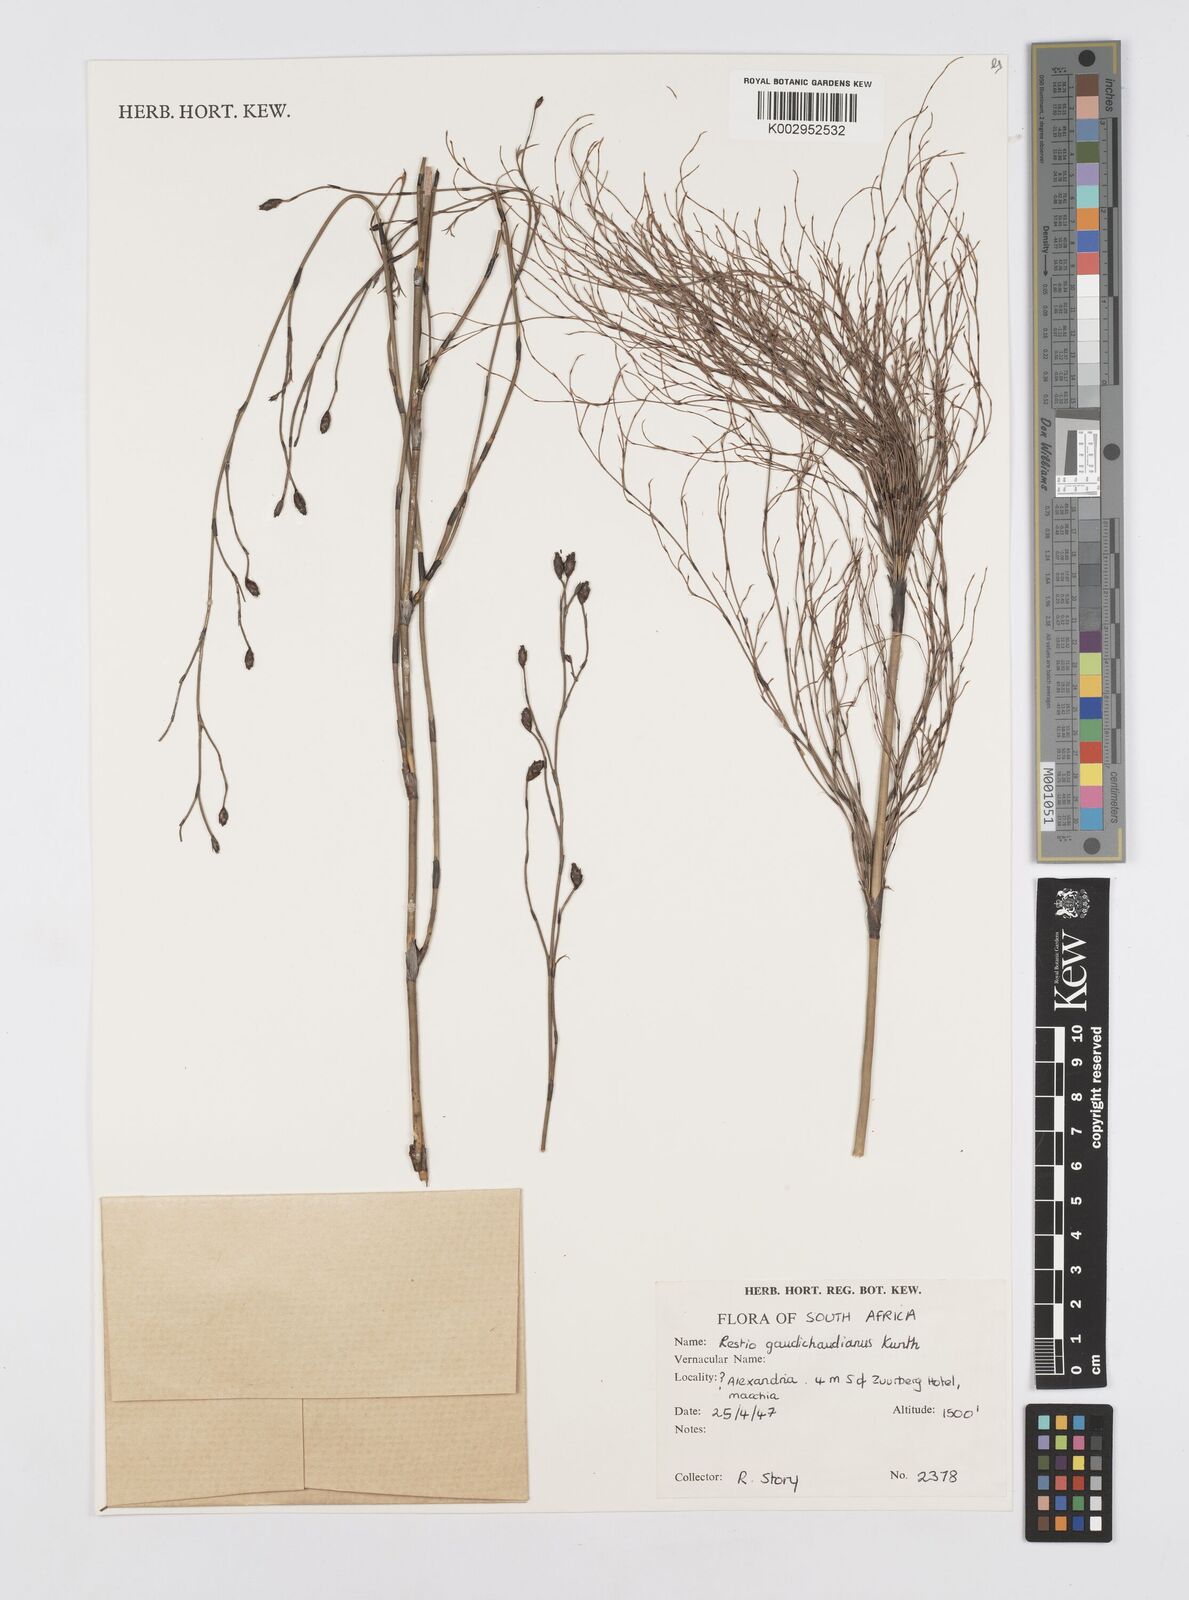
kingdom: Plantae
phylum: Tracheophyta
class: Liliopsida
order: Poales
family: Restionaceae
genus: Restio
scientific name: Restio gaudichaudianus
